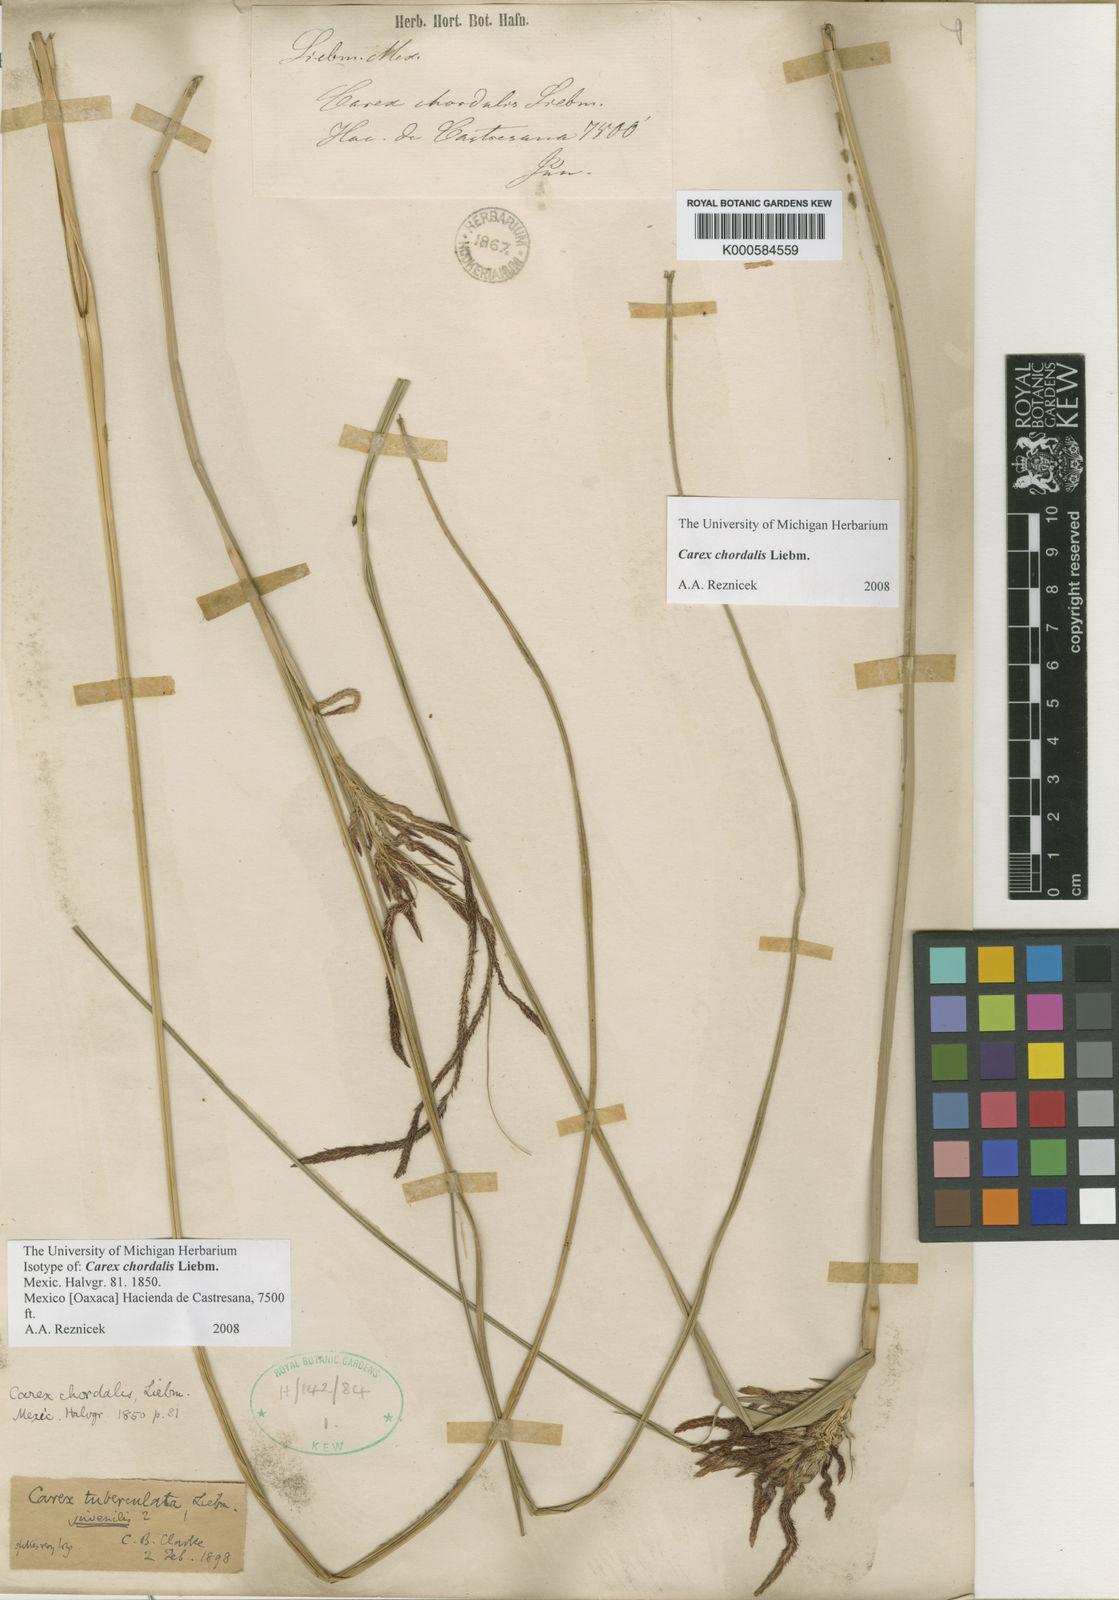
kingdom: Plantae
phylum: Tracheophyta
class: Liliopsida
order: Poales
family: Cyperaceae
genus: Carex
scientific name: Carex chordalis
